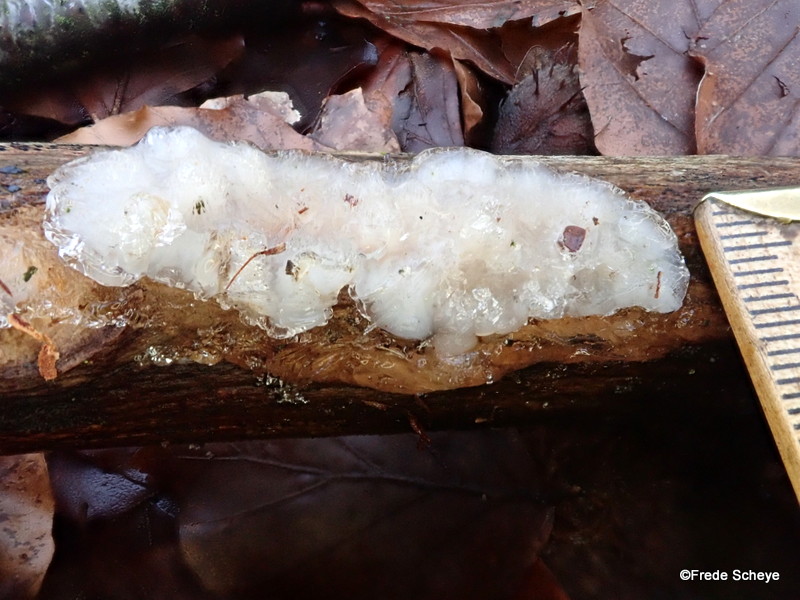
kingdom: Fungi
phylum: Basidiomycota
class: Agaricomycetes
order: Auriculariales
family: Auriculariaceae
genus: Exidia
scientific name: Exidia thuretiana
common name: hvidlig bævretop
